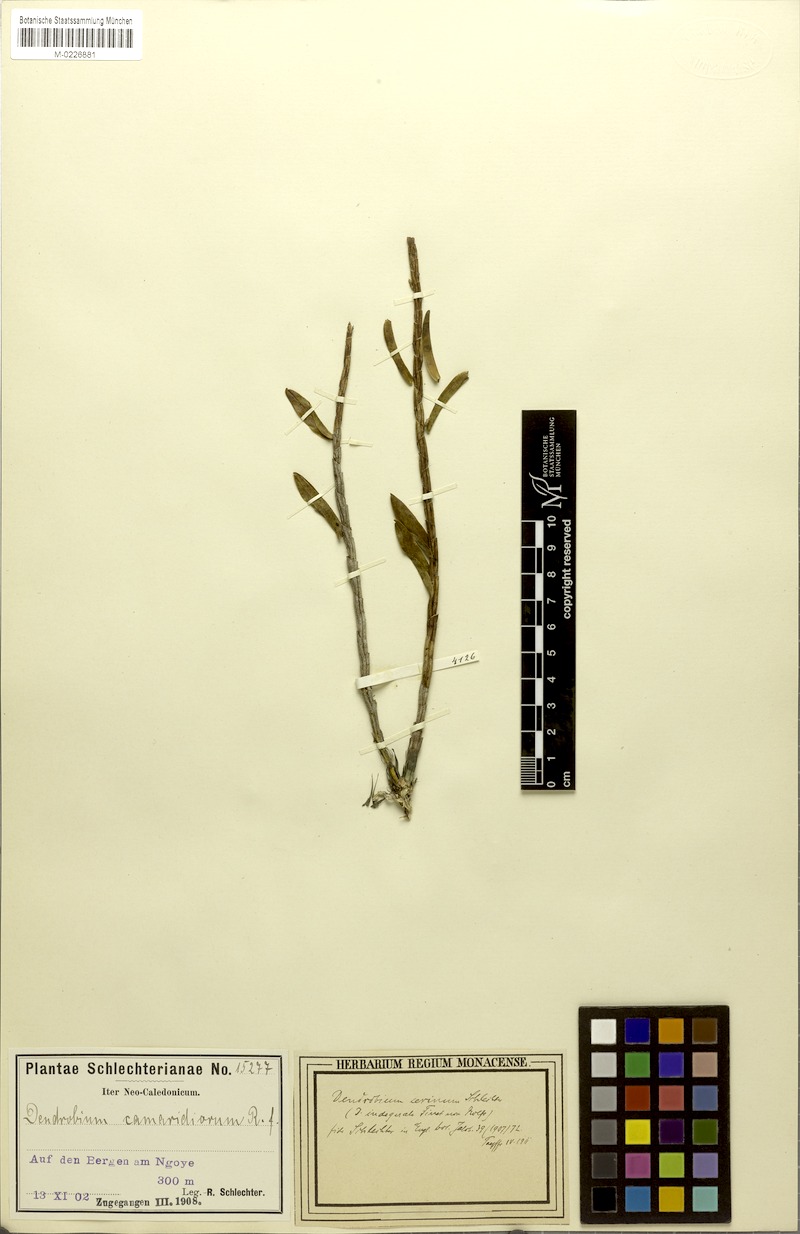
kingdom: Plantae
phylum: Tracheophyta
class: Liliopsida
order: Asparagales
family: Orchidaceae
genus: Dendrobium
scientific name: Dendrobium austrocaledonicum
